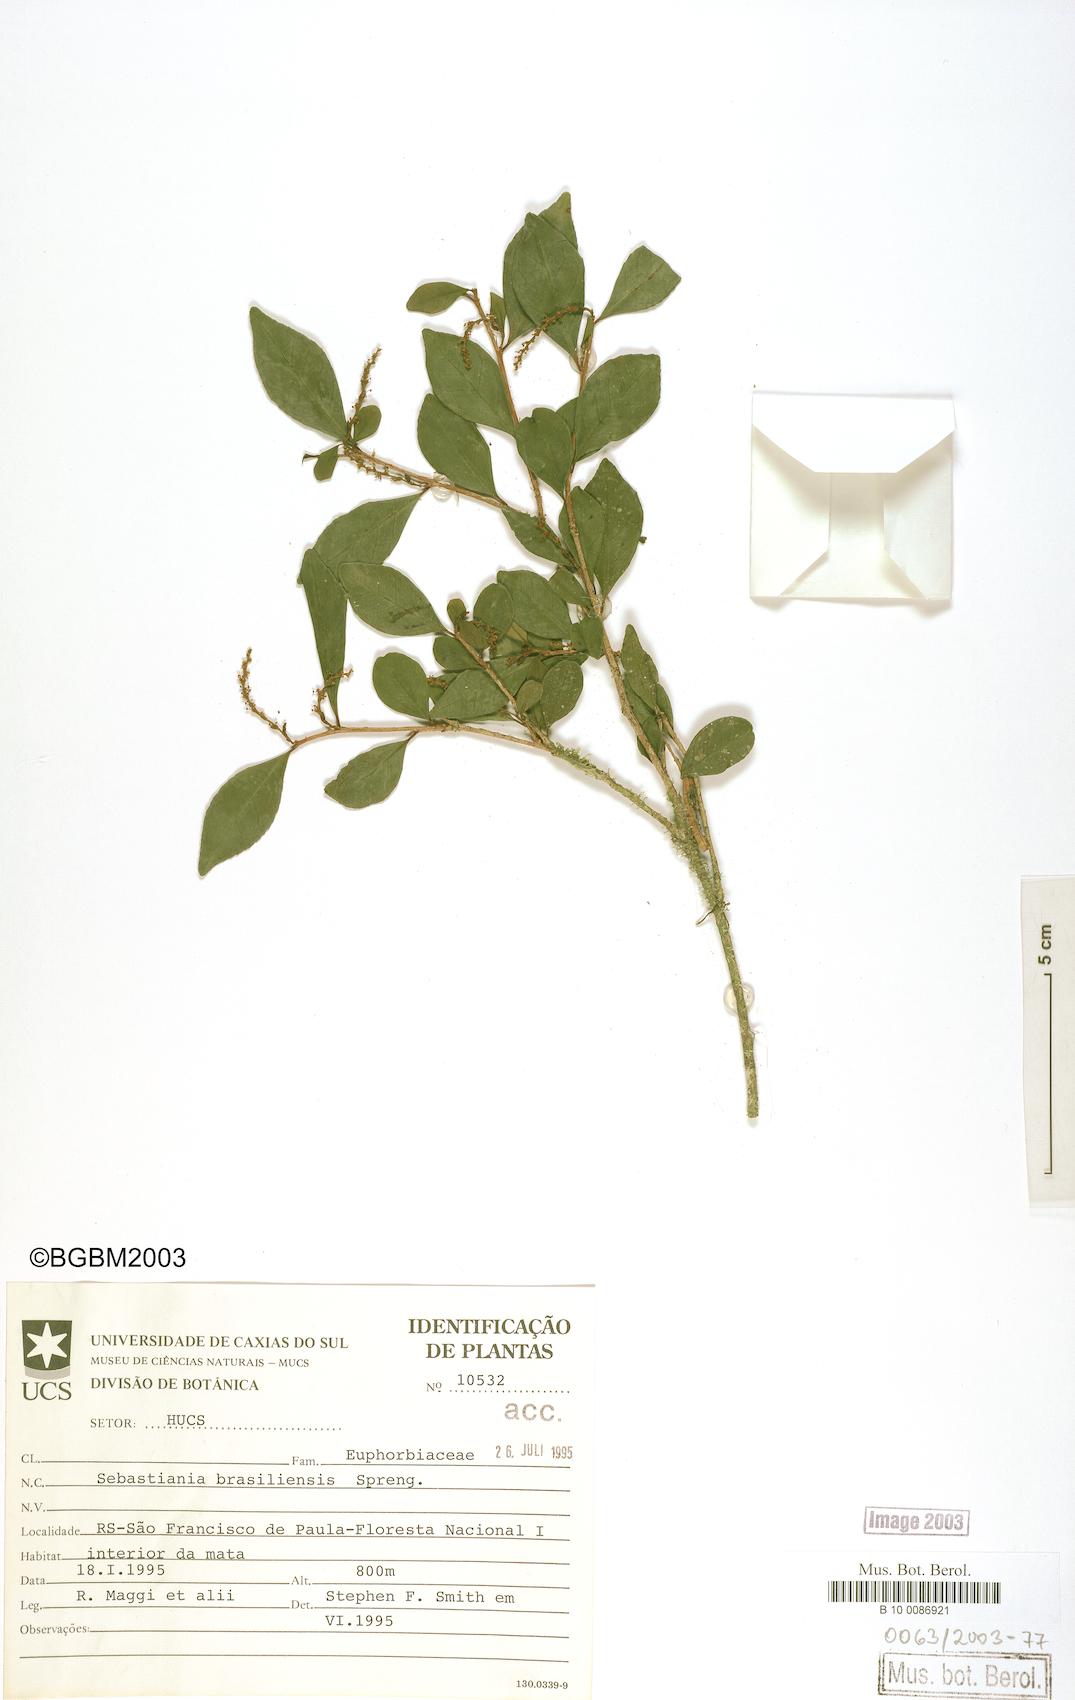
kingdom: Plantae
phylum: Tracheophyta
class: Magnoliopsida
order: Malpighiales
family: Euphorbiaceae
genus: Sebastiania
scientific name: Sebastiania brasiliensis
